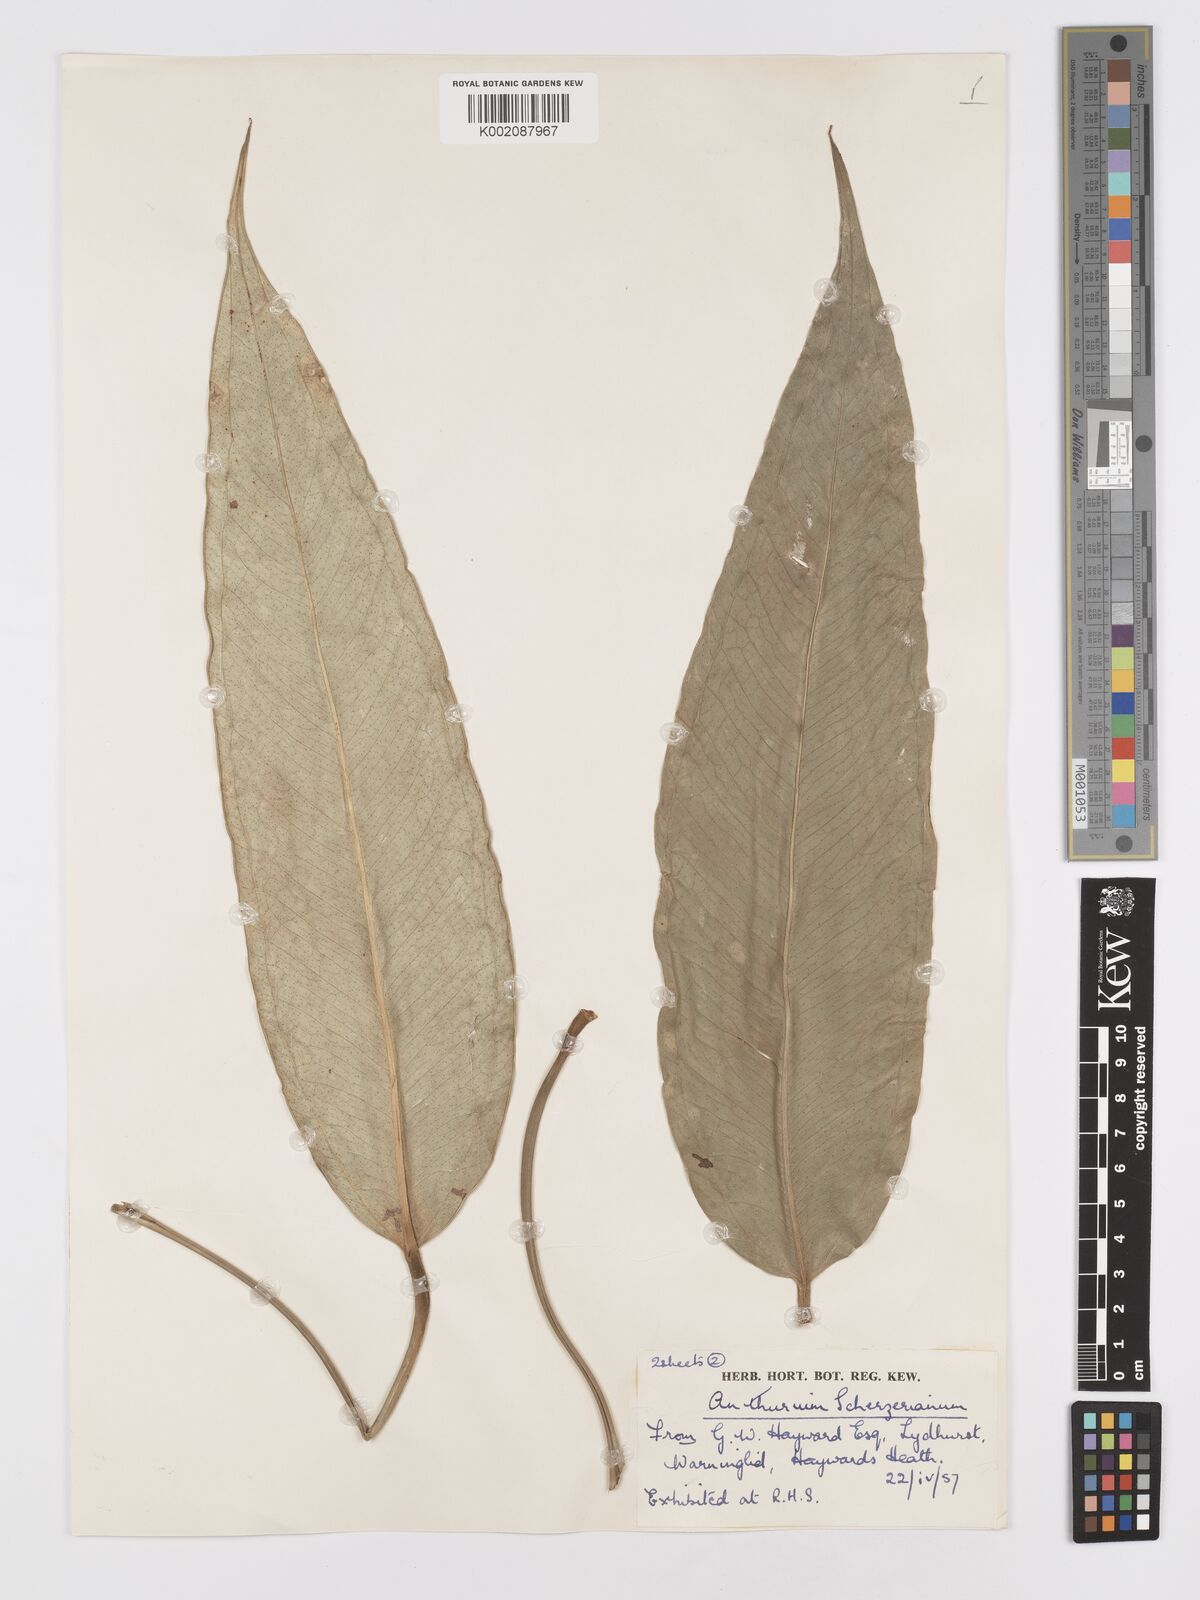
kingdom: Plantae
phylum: Tracheophyta
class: Liliopsida
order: Alismatales
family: Araceae
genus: Anthurium
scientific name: Anthurium scherzerianum
